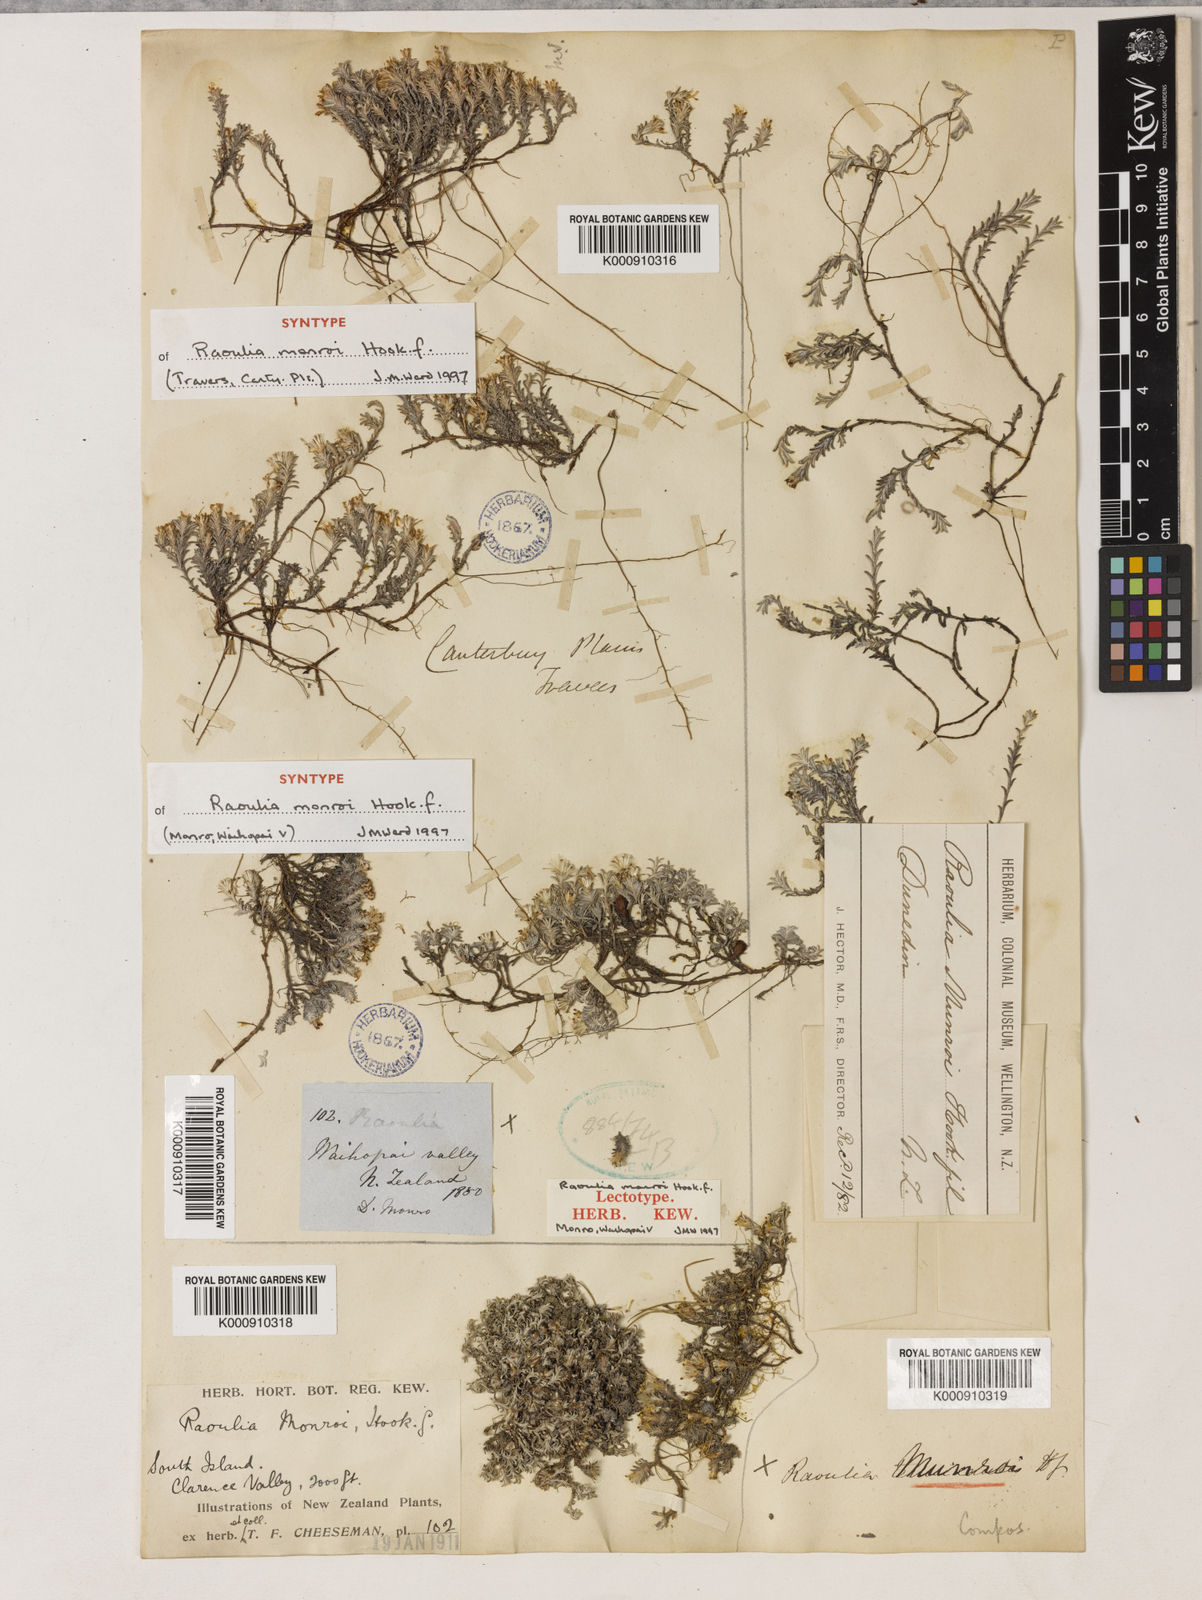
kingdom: Plantae
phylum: Tracheophyta
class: Magnoliopsida
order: Asterales
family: Asteraceae
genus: Raoulia
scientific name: Raoulia monroi
